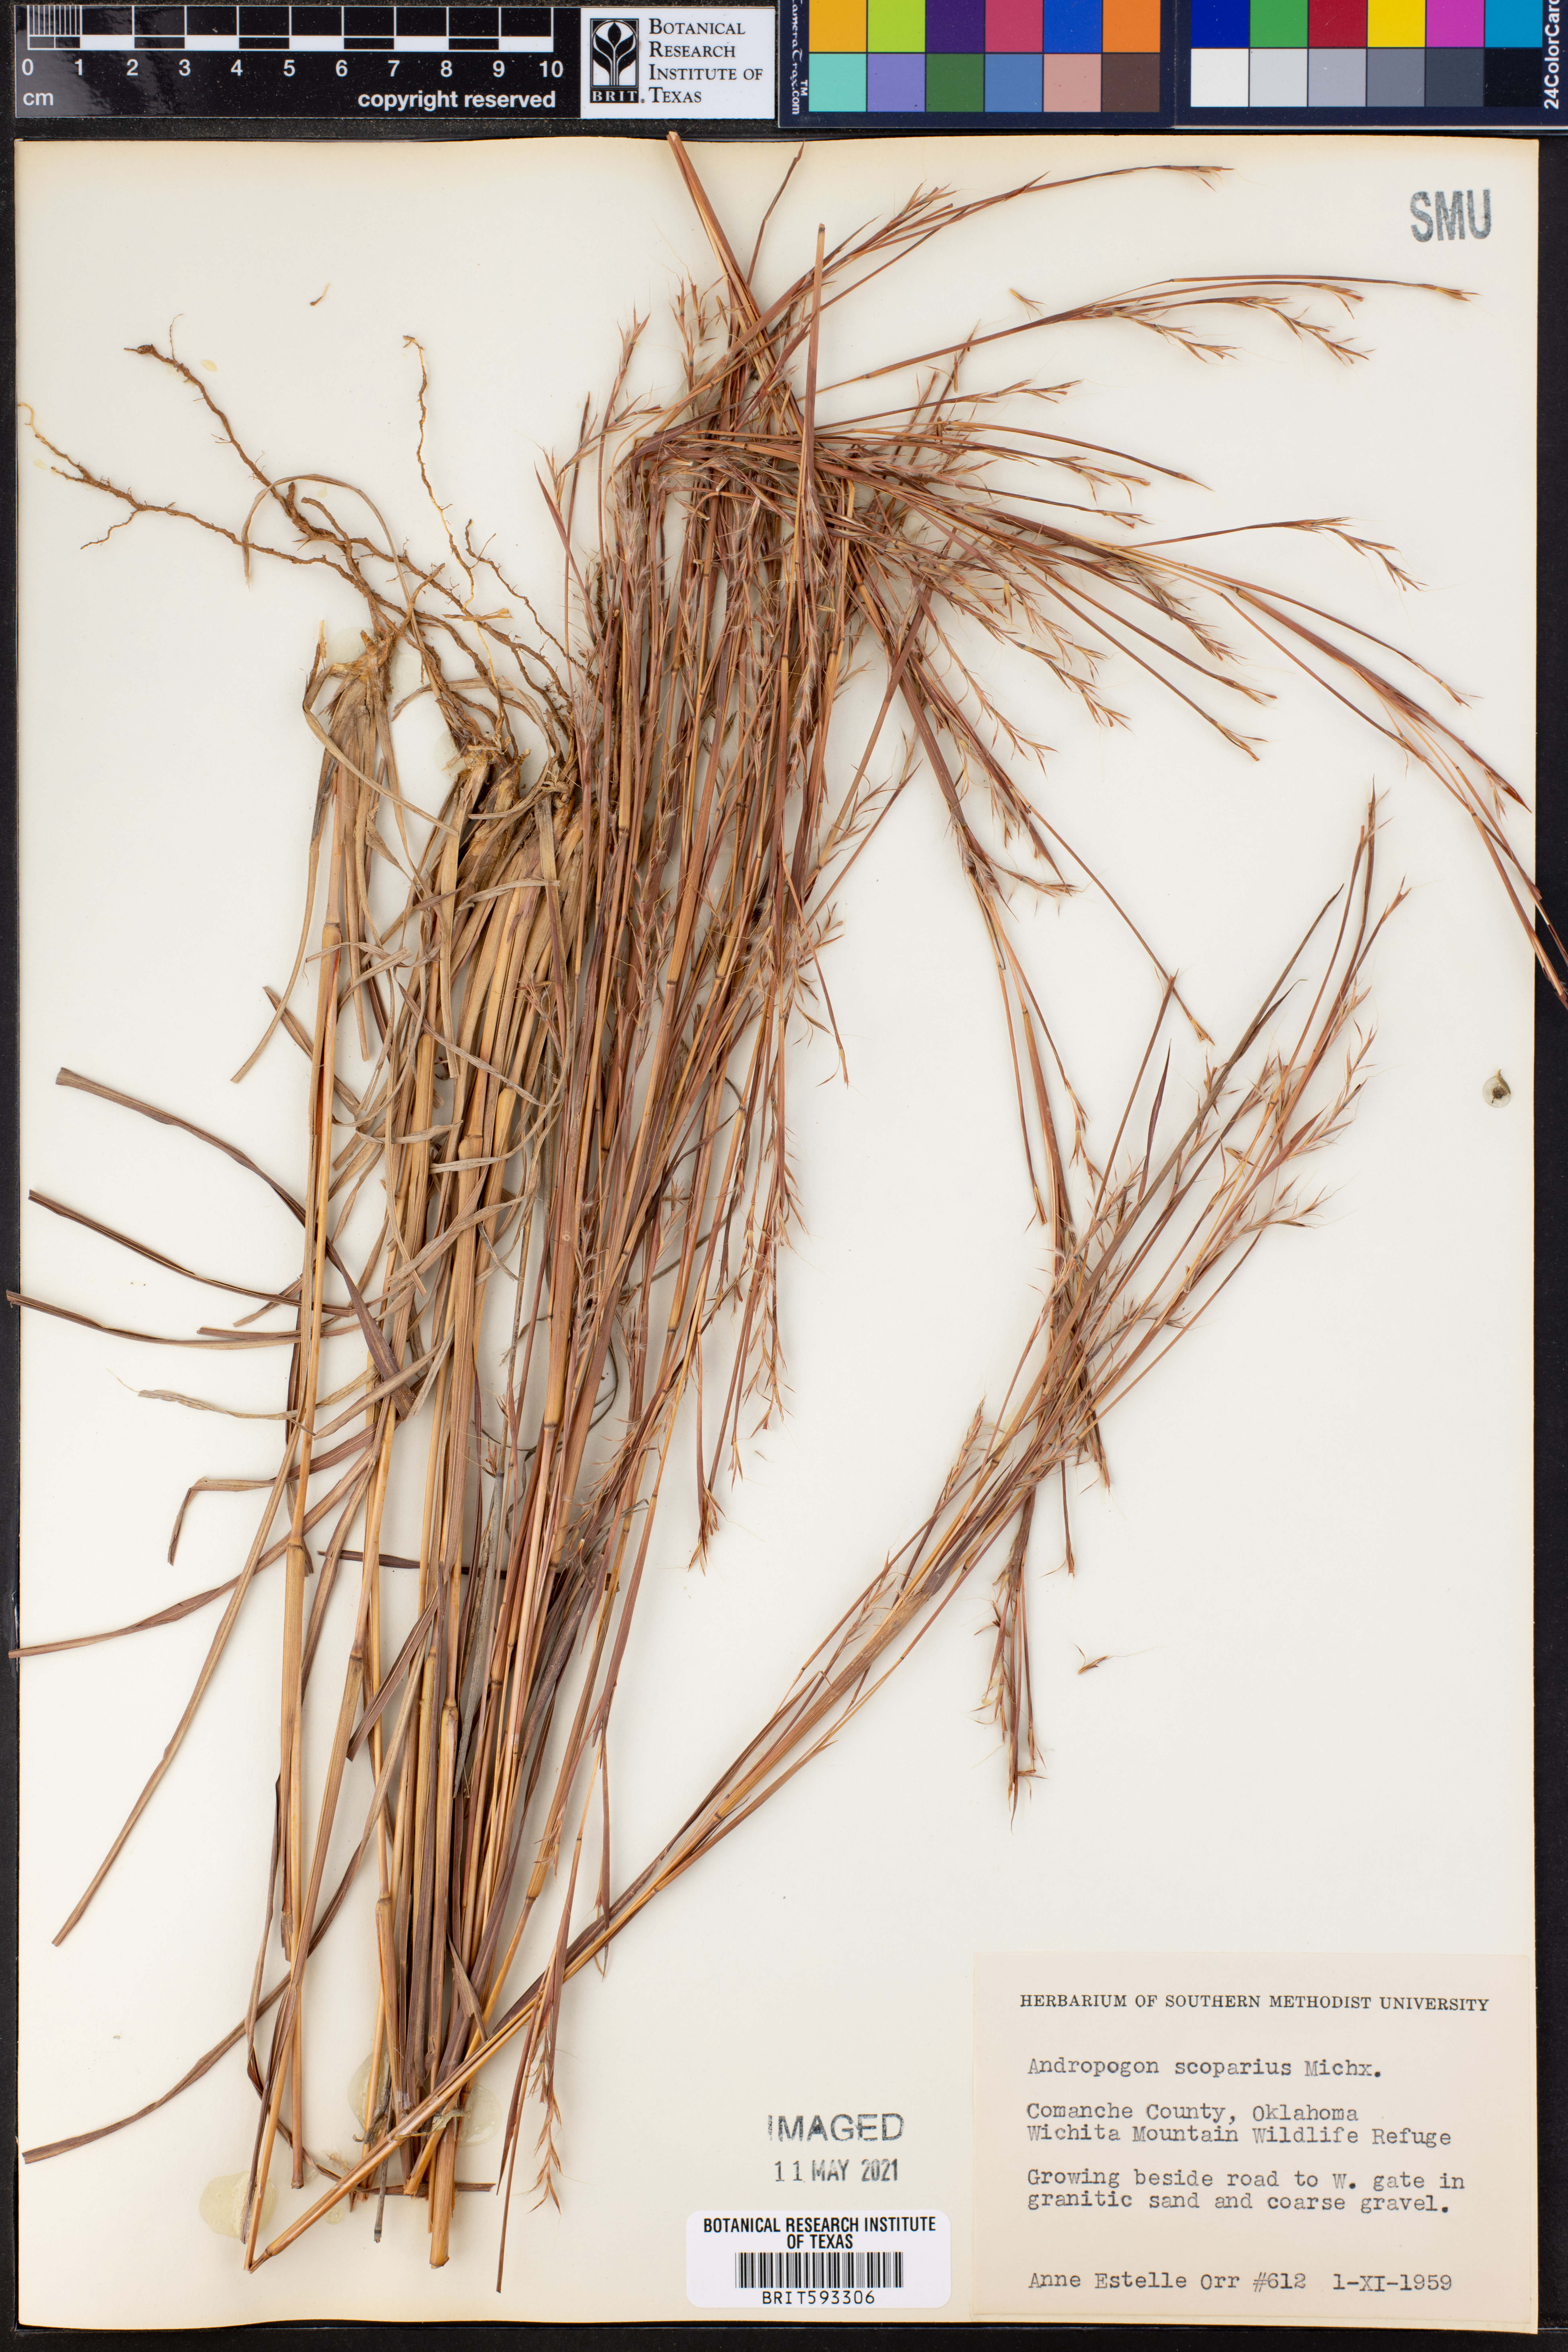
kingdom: Plantae
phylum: Tracheophyta
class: Liliopsida
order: Poales
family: Poaceae
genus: Schizachyrium
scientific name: Schizachyrium scoparium
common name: Little bluestem
